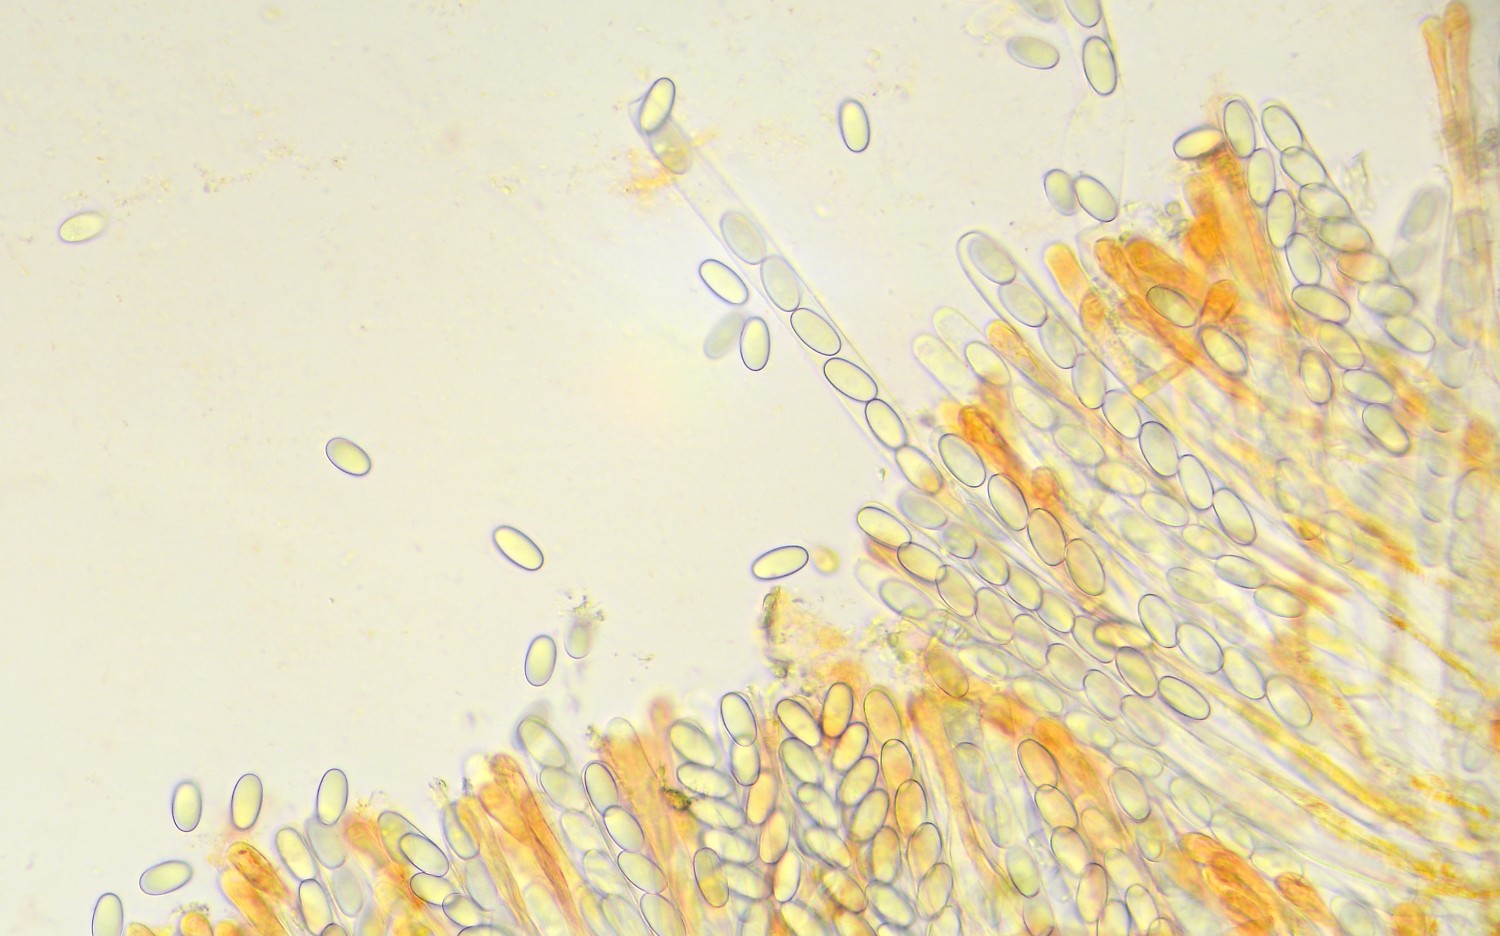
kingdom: Fungi
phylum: Ascomycota
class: Pezizomycetes
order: Pezizales
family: Pyronemataceae
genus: Cheilymenia
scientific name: Cheilymenia stercorea
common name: gødnings-hårbæger
